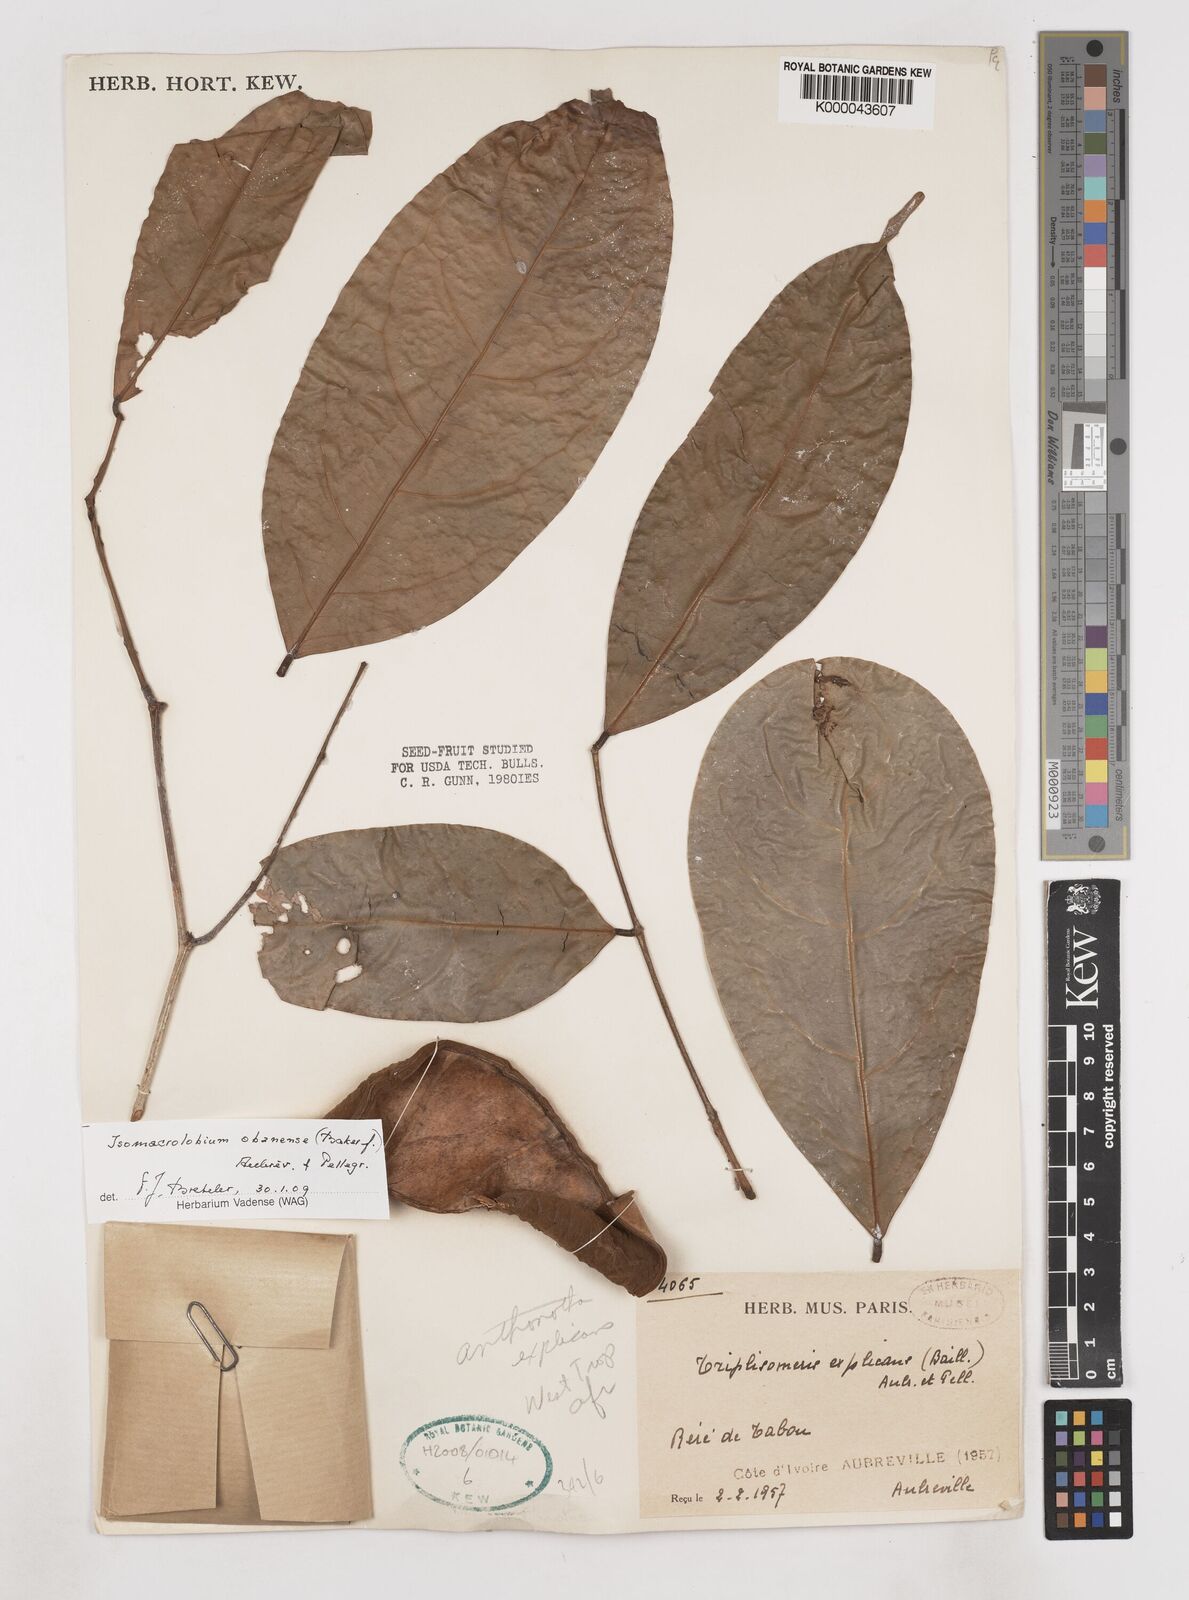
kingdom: Plantae
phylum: Tracheophyta
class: Magnoliopsida
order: Fabales
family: Fabaceae
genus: Anthonotha
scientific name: Anthonotha
